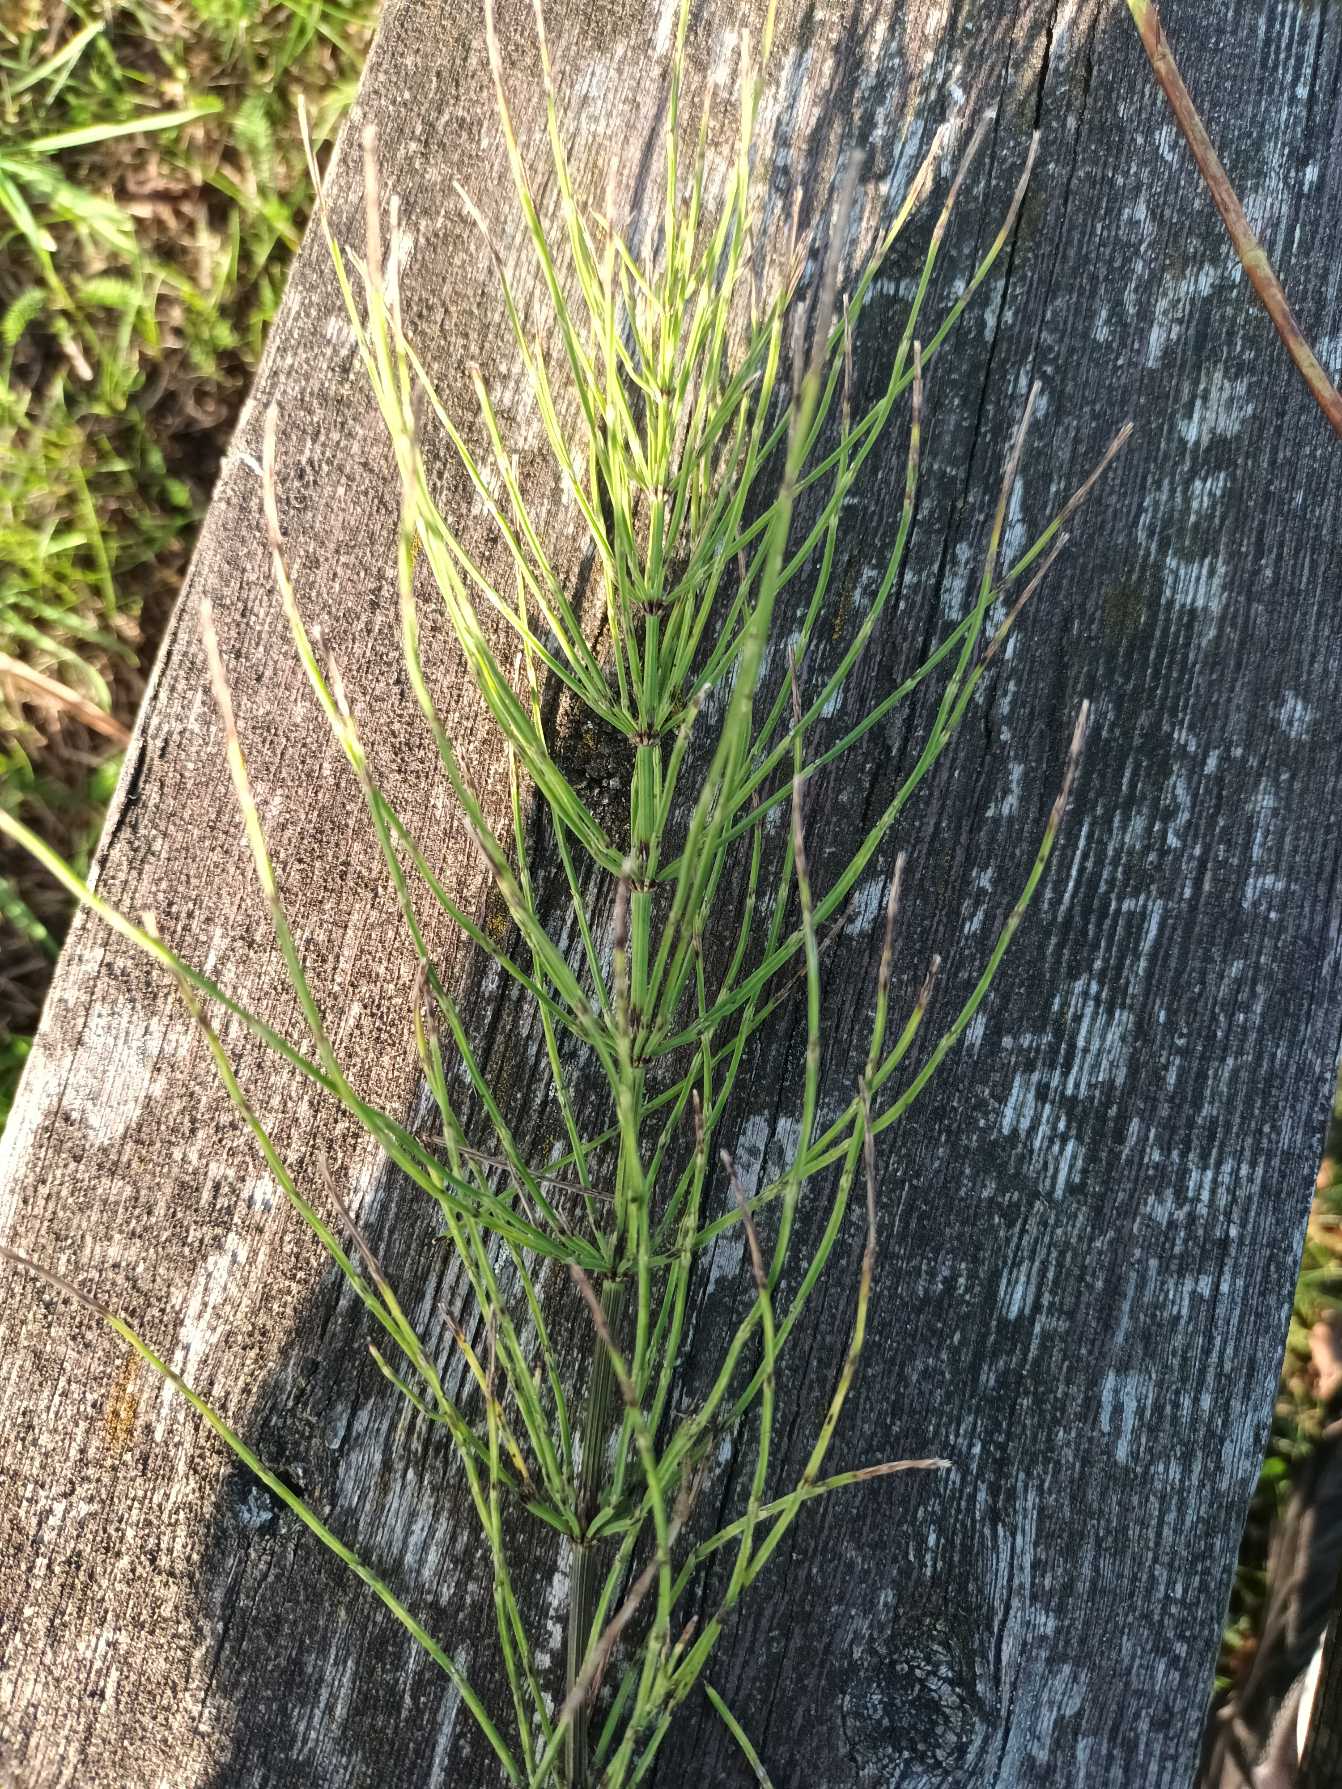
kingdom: Plantae
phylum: Tracheophyta
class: Polypodiopsida
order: Equisetales
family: Equisetaceae
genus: Equisetum
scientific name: Equisetum arvense
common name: Ager-padderok
